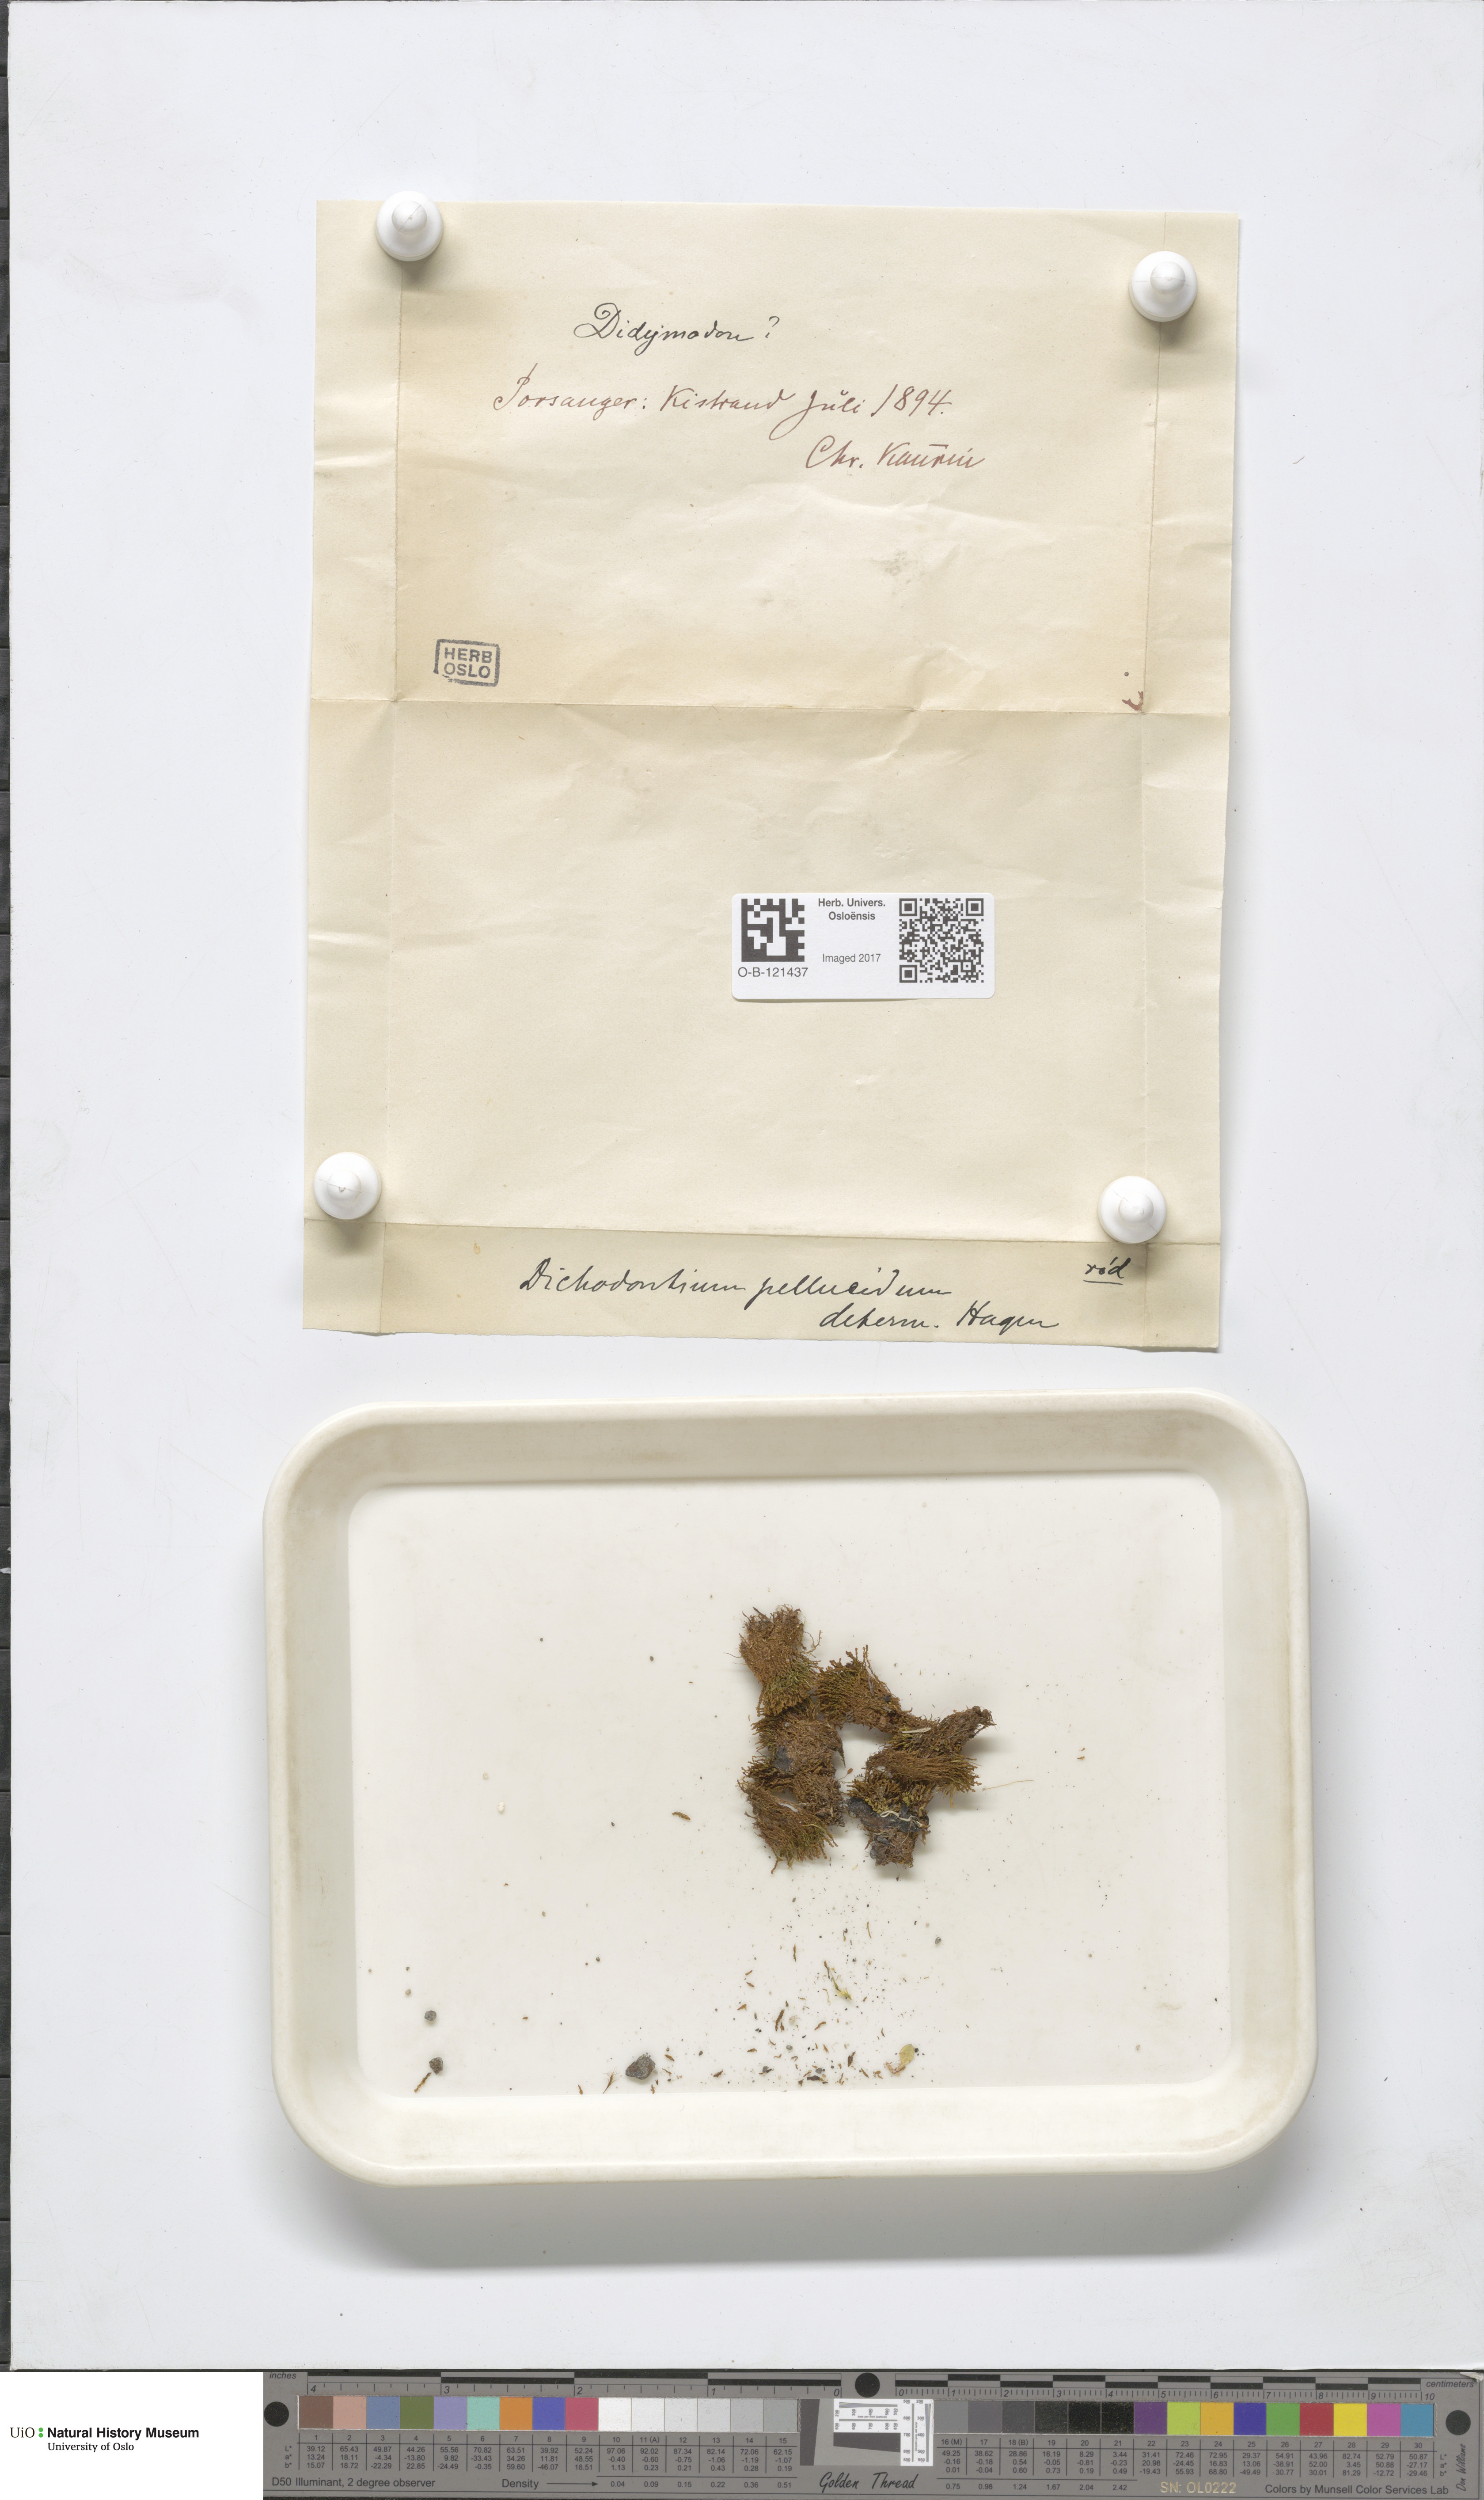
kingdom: Plantae
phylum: Bryophyta
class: Bryopsida
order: Dicranales
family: Aongstroemiaceae
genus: Dichodontium
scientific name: Dichodontium pellucidum
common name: Transparent fork moss
